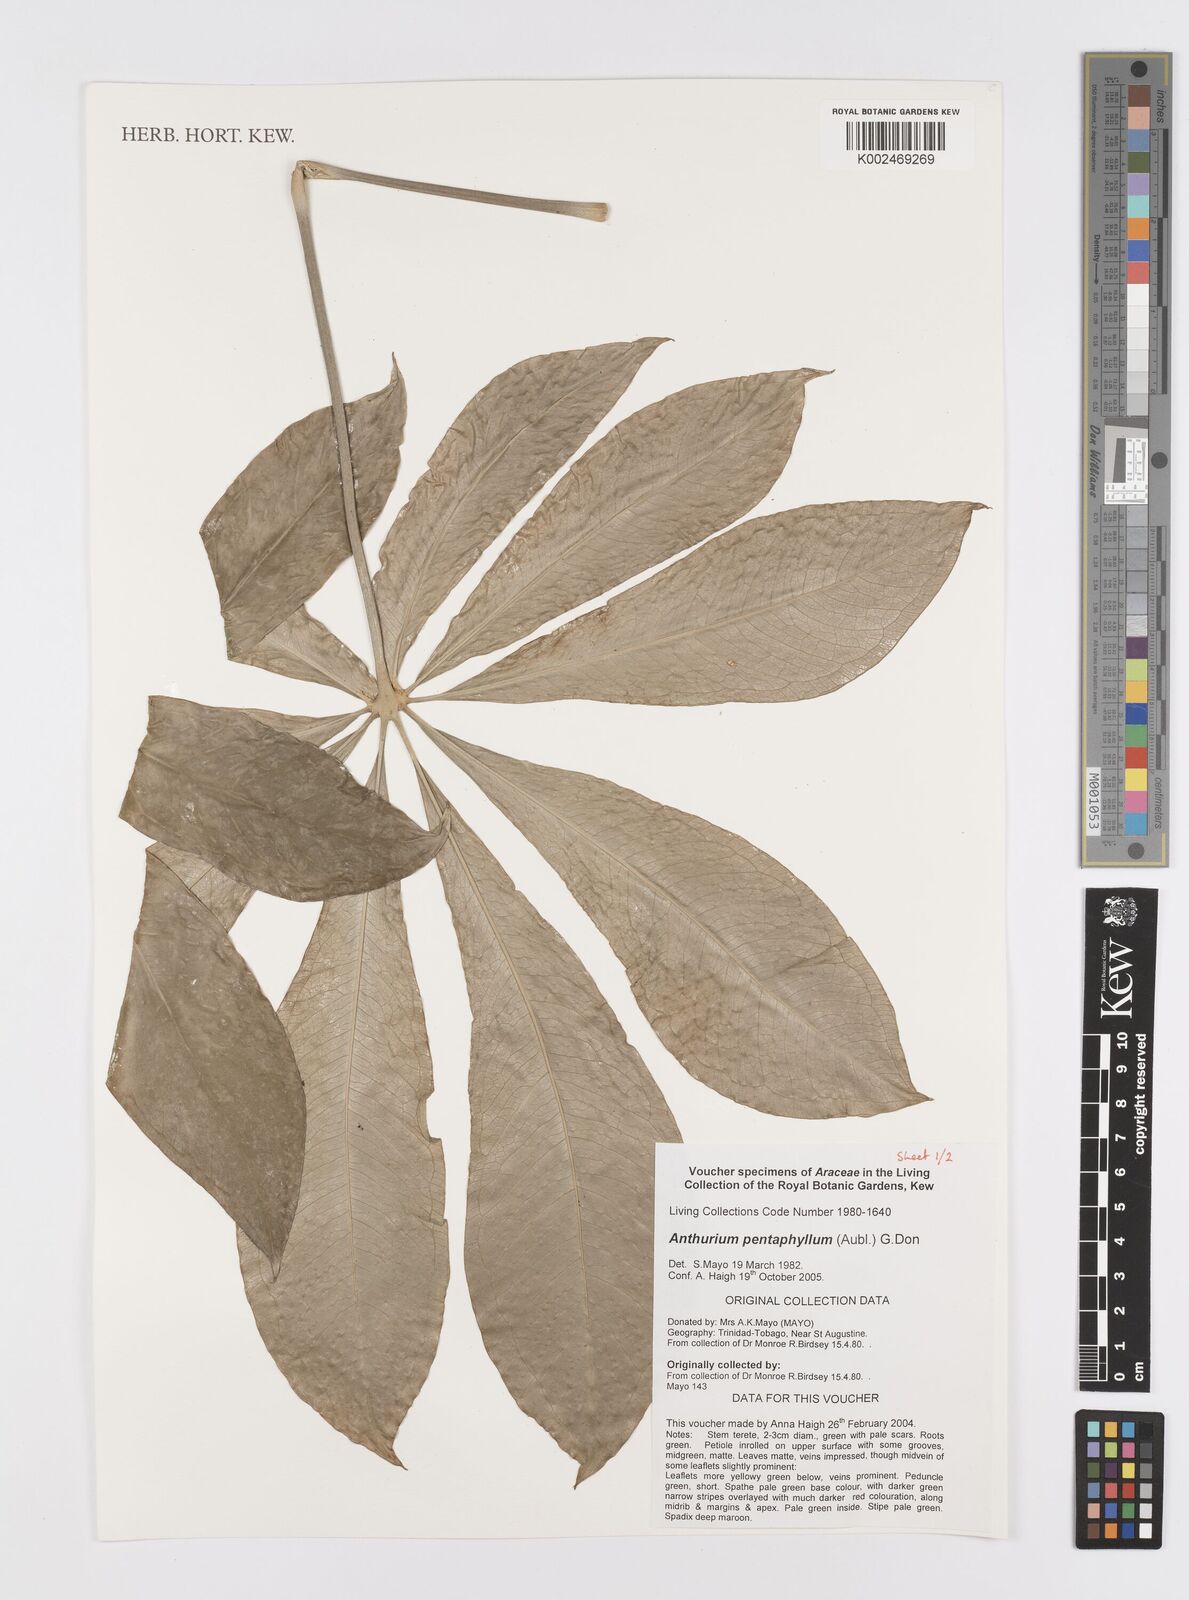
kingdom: Plantae
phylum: Tracheophyta
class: Liliopsida
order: Alismatales
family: Araceae
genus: Anthurium
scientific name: Anthurium pentaphyllum
